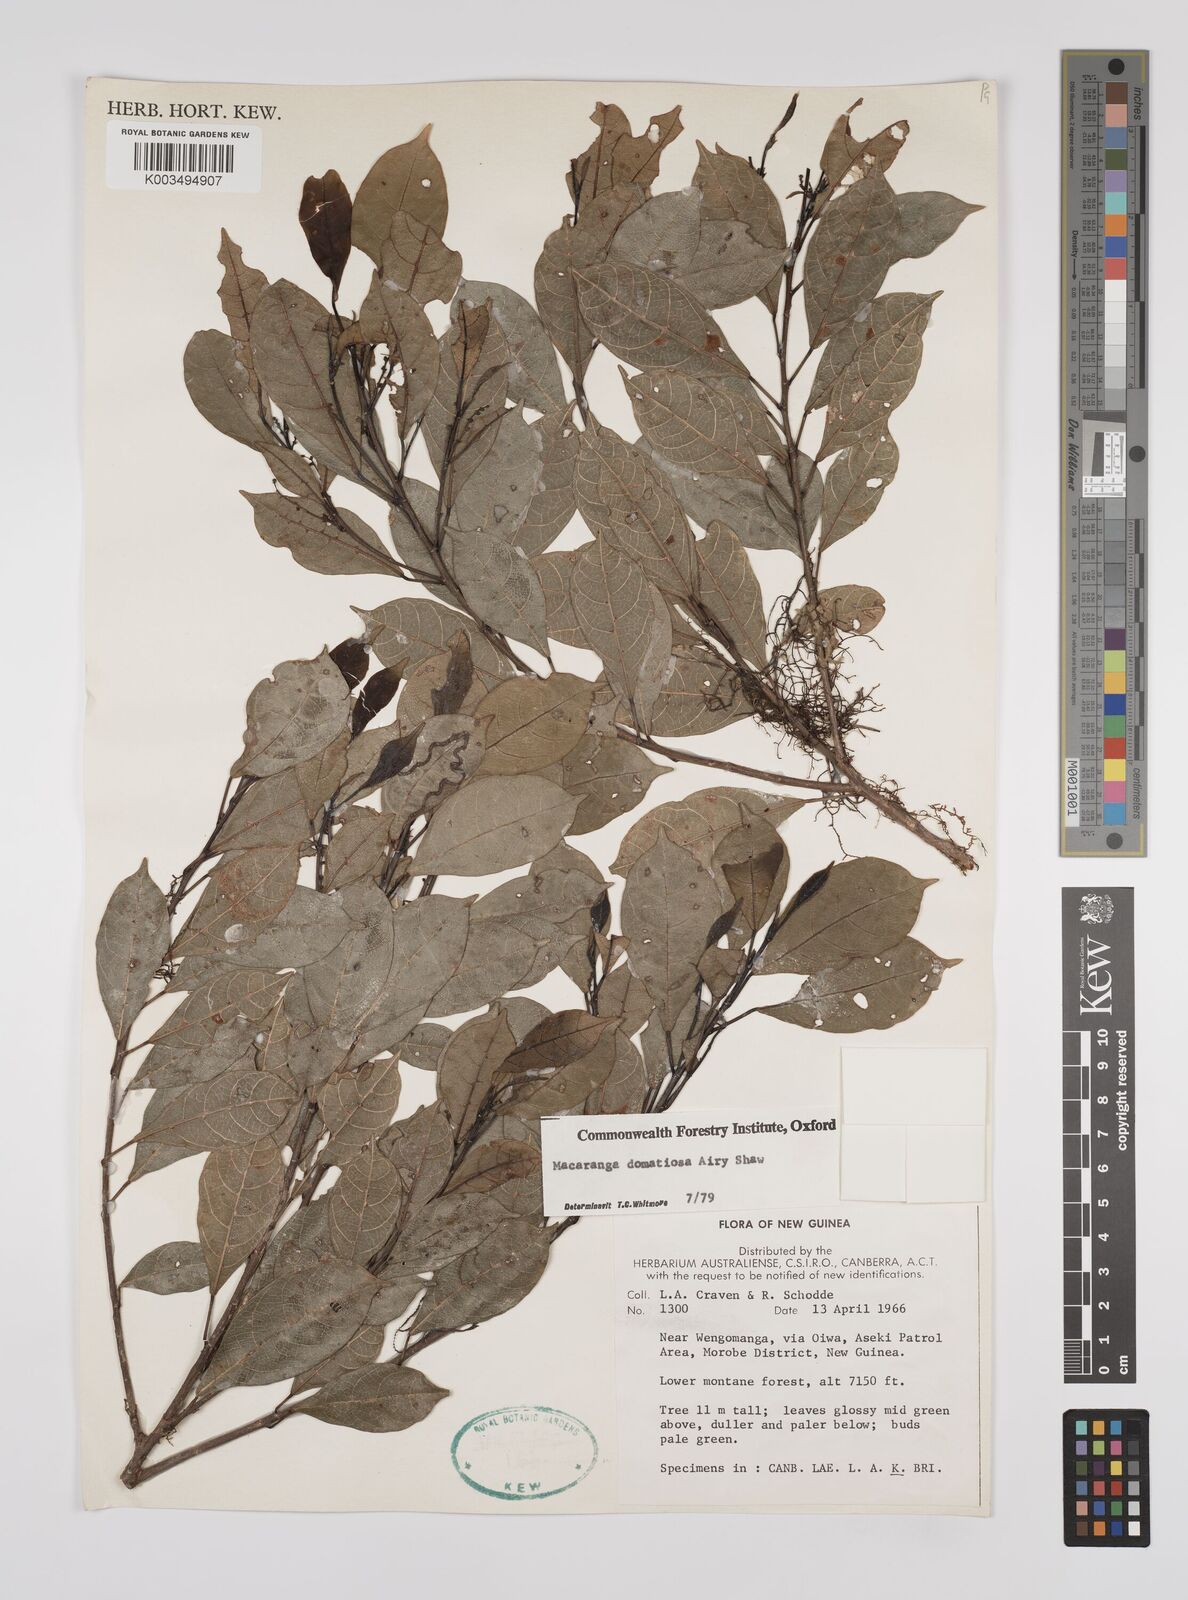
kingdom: Plantae
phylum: Tracheophyta
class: Magnoliopsida
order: Malpighiales
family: Euphorbiaceae
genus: Macaranga
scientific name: Macaranga domatiosa
